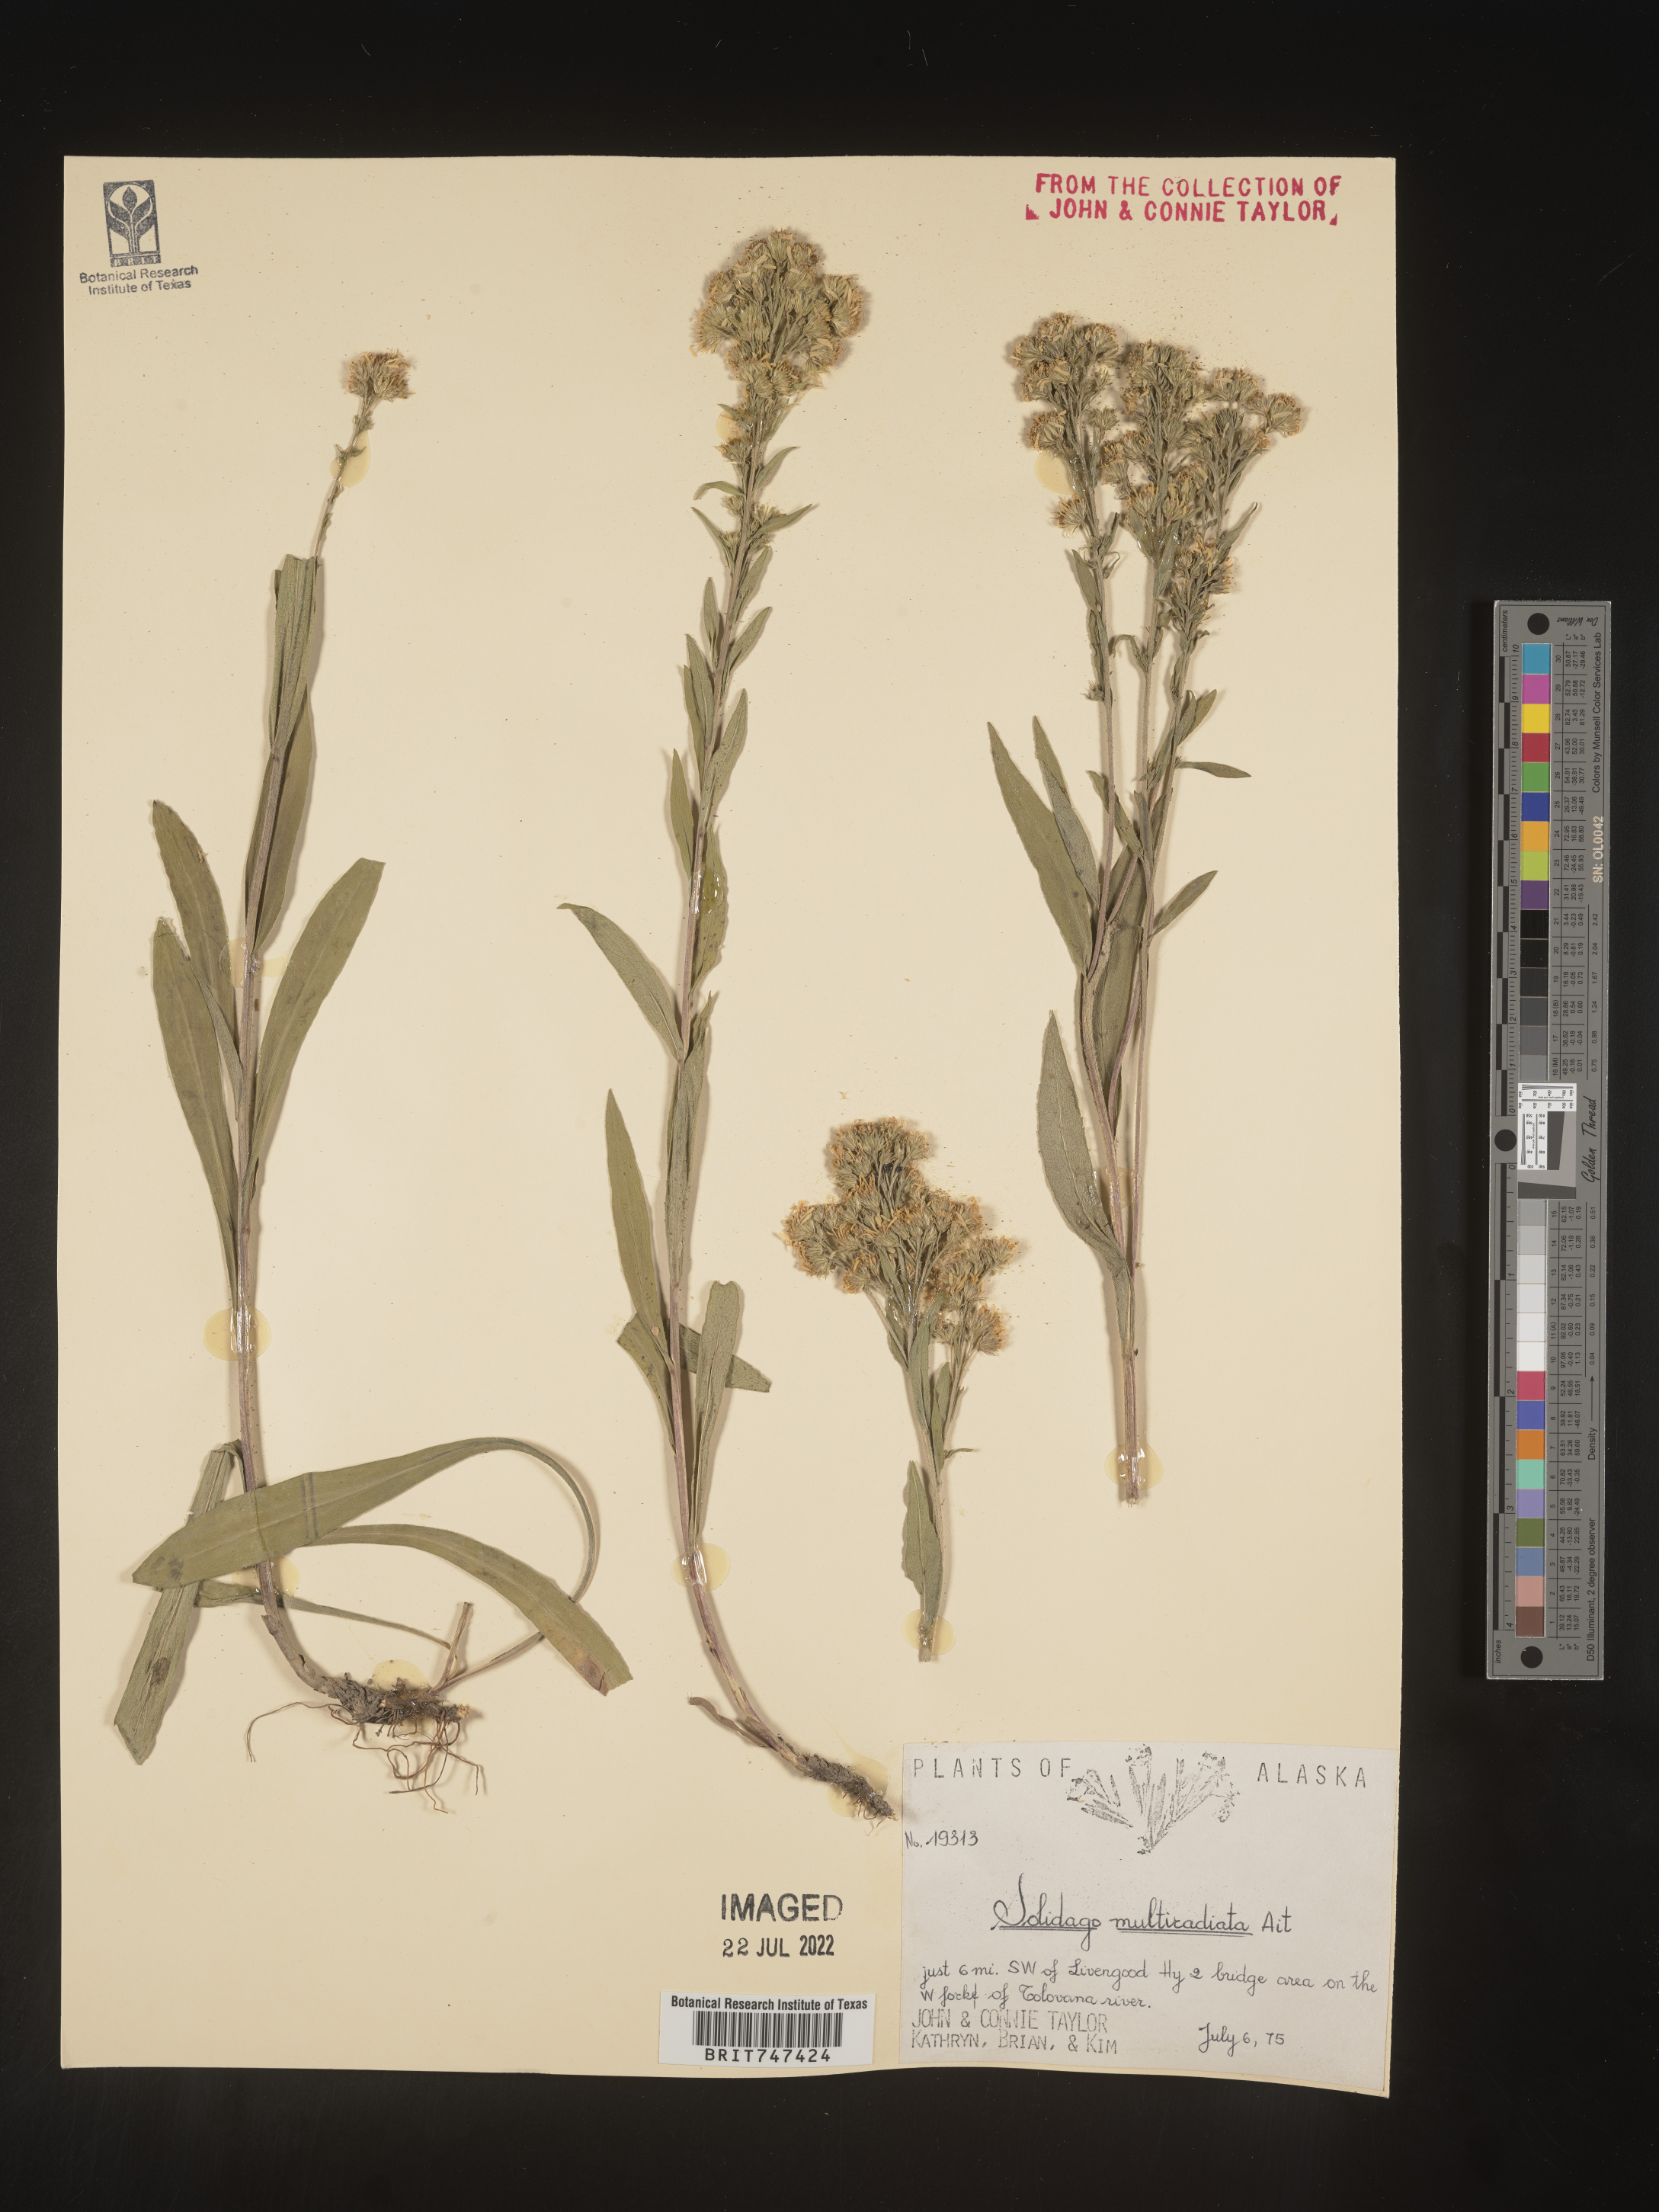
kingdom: Plantae
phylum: Tracheophyta
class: Magnoliopsida
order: Asterales
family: Asteraceae
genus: Solidago
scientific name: Solidago multiradiata
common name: Northern goldenrod
